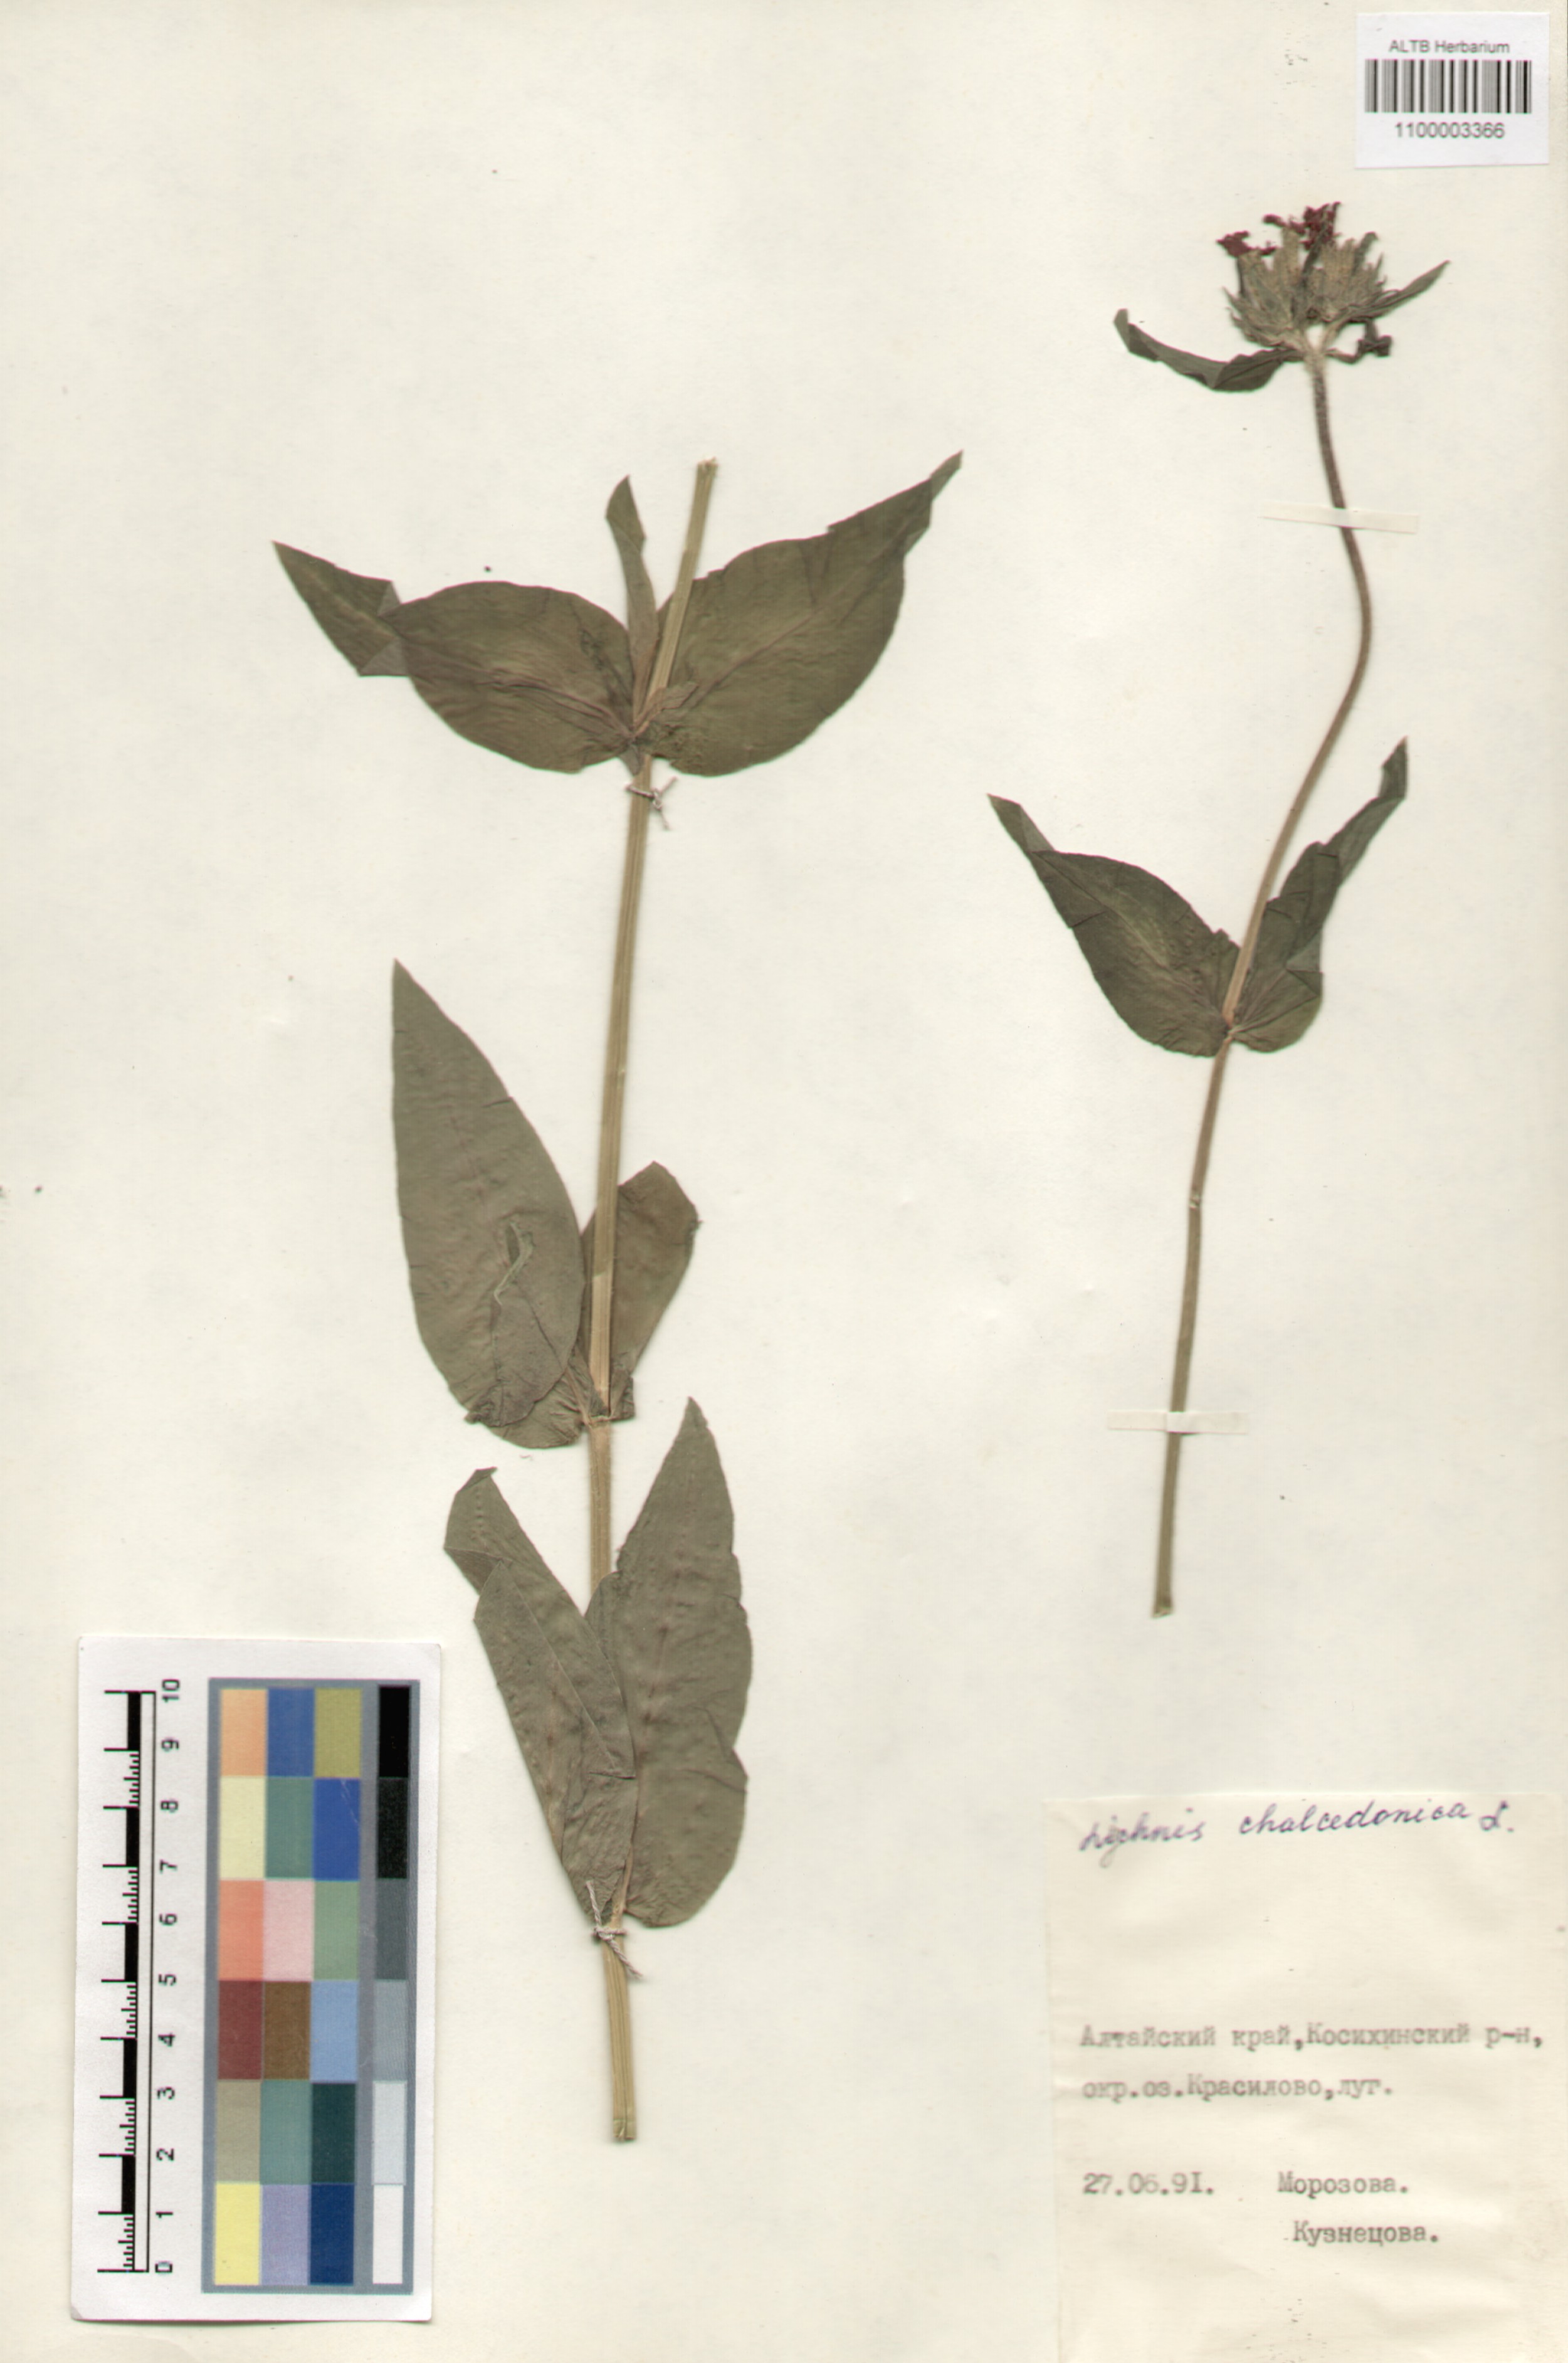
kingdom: Plantae
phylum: Tracheophyta
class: Magnoliopsida
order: Caryophyllales
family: Caryophyllaceae
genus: Silene
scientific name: Silene chalcedonica
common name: Maltese-cross
